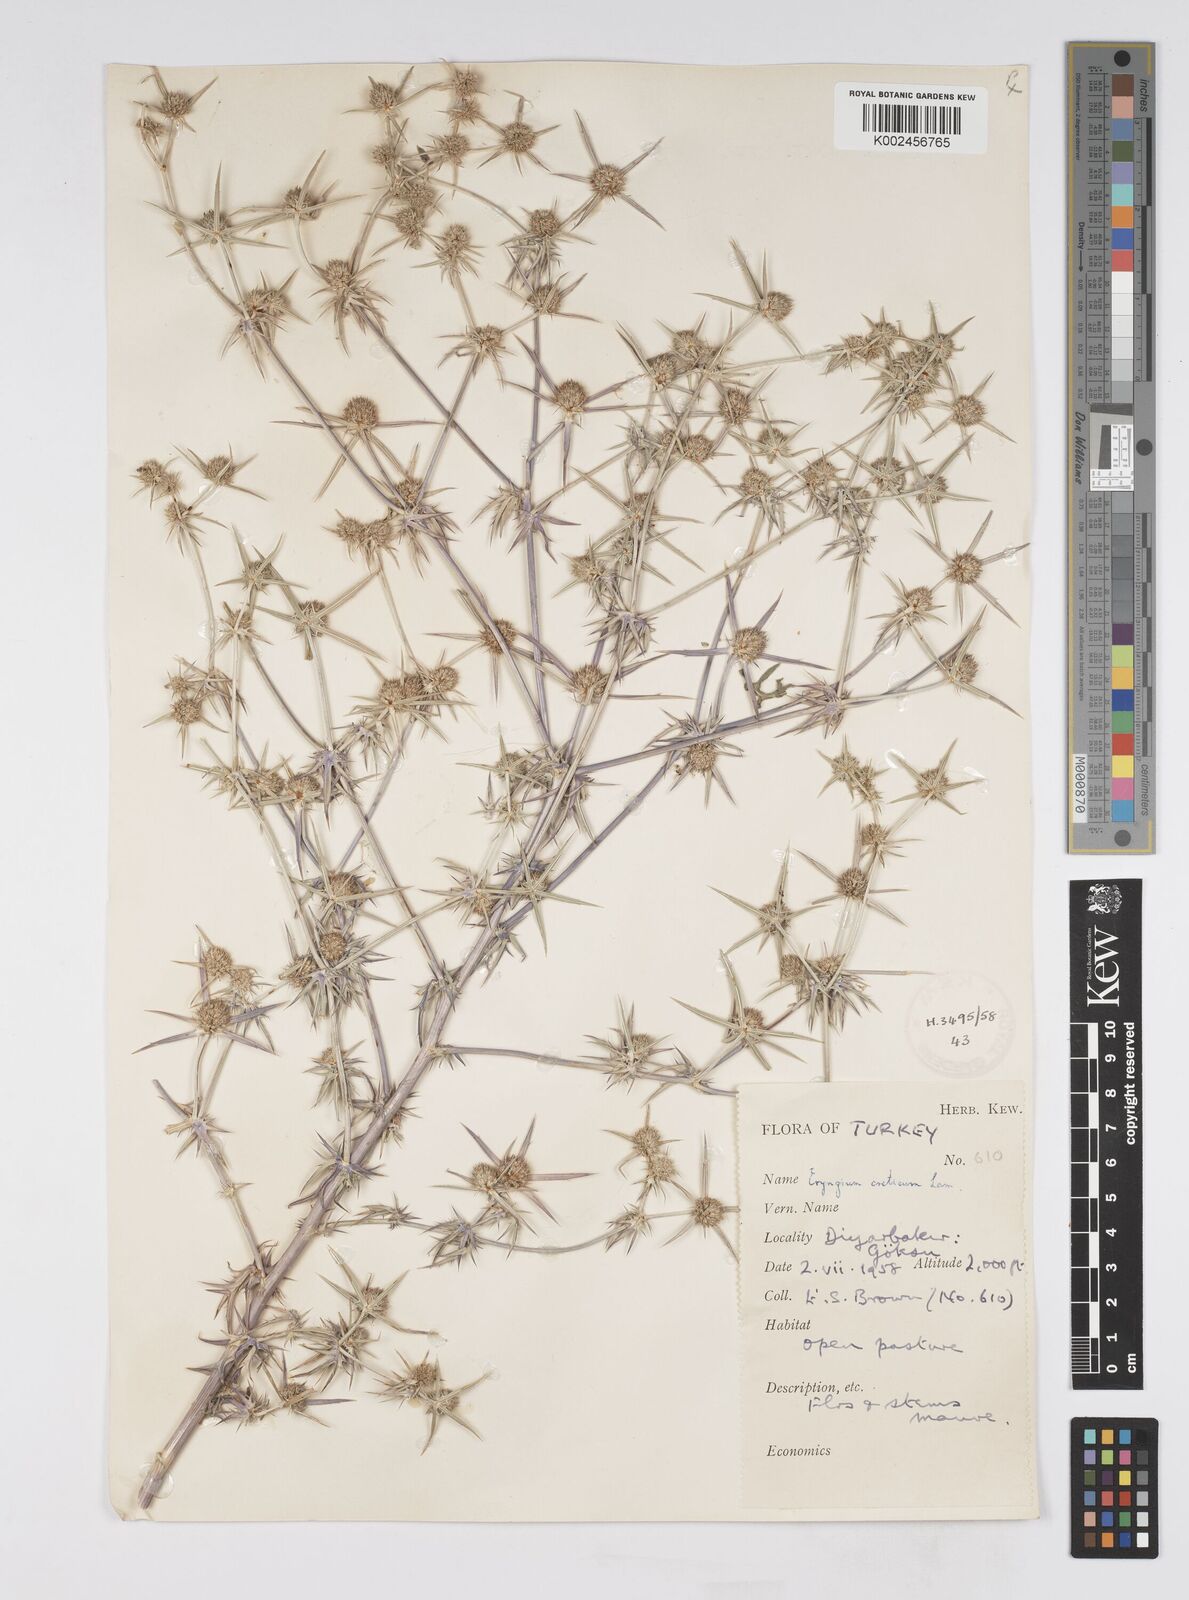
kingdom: Plantae
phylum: Tracheophyta
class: Magnoliopsida
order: Apiales
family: Apiaceae
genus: Eryngium
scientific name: Eryngium creticum
